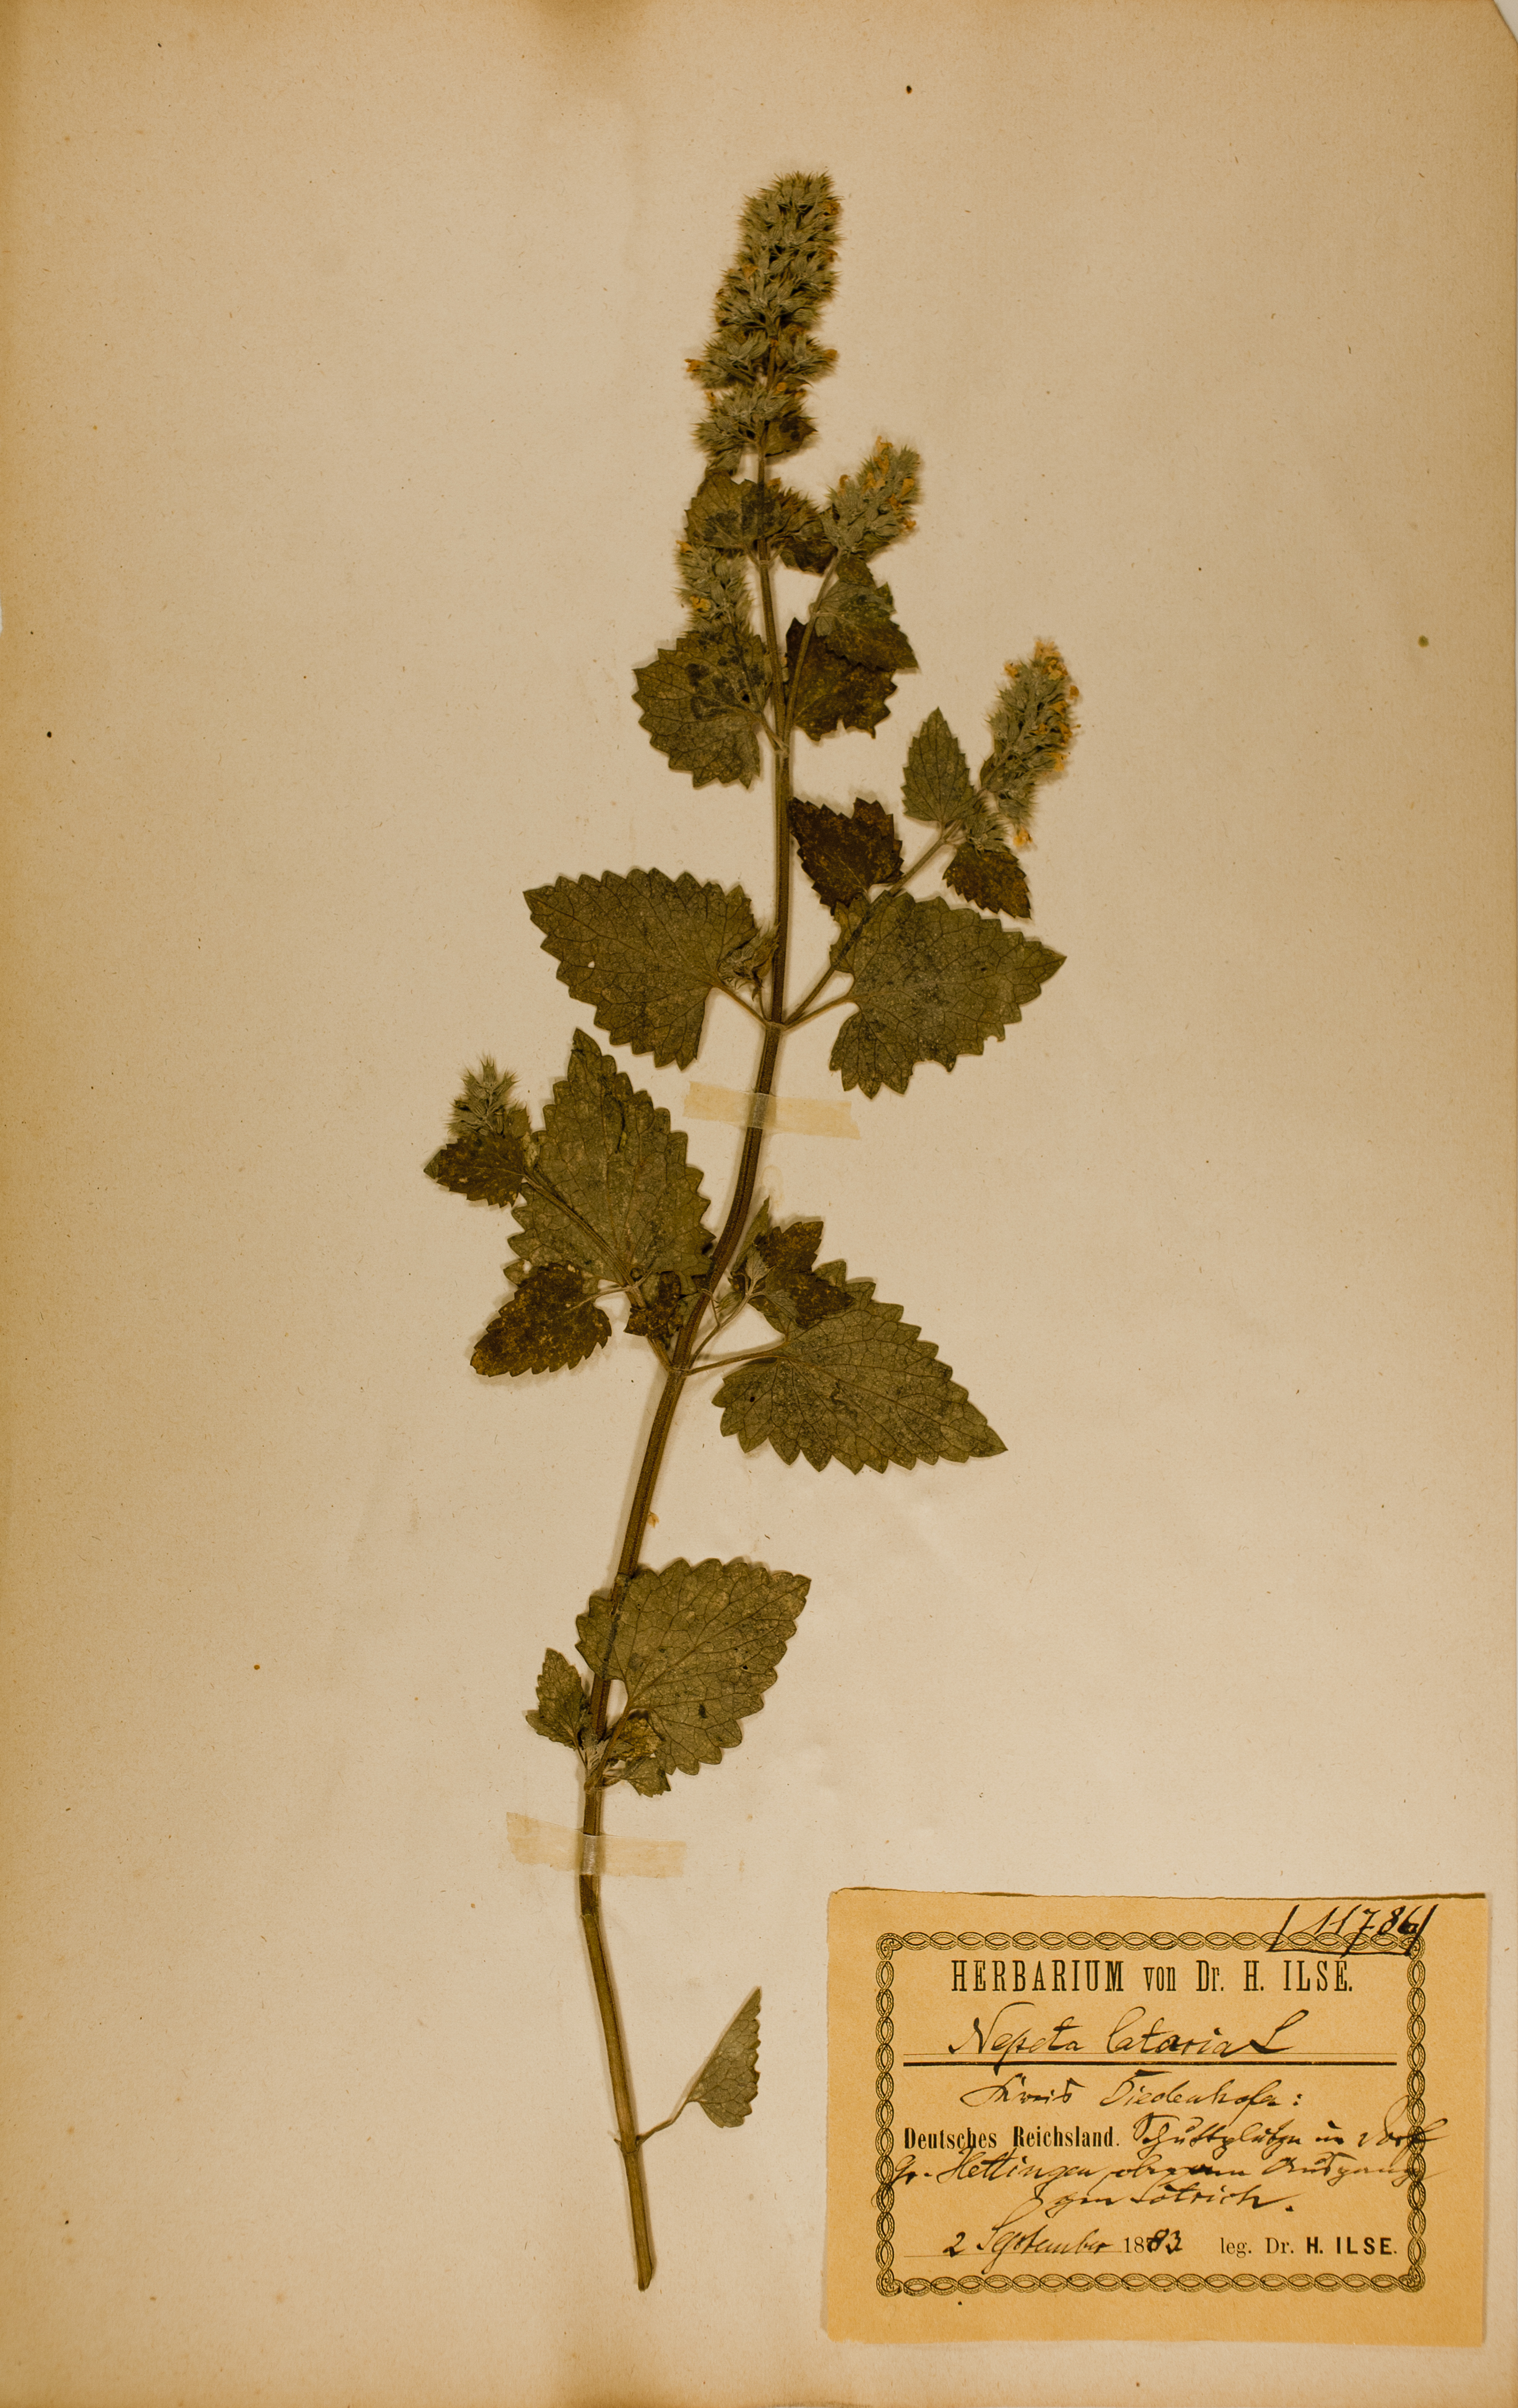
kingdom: Plantae
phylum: Tracheophyta
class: Magnoliopsida
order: Lamiales
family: Lamiaceae
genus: Nepeta
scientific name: Nepeta cataria
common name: Catnip
